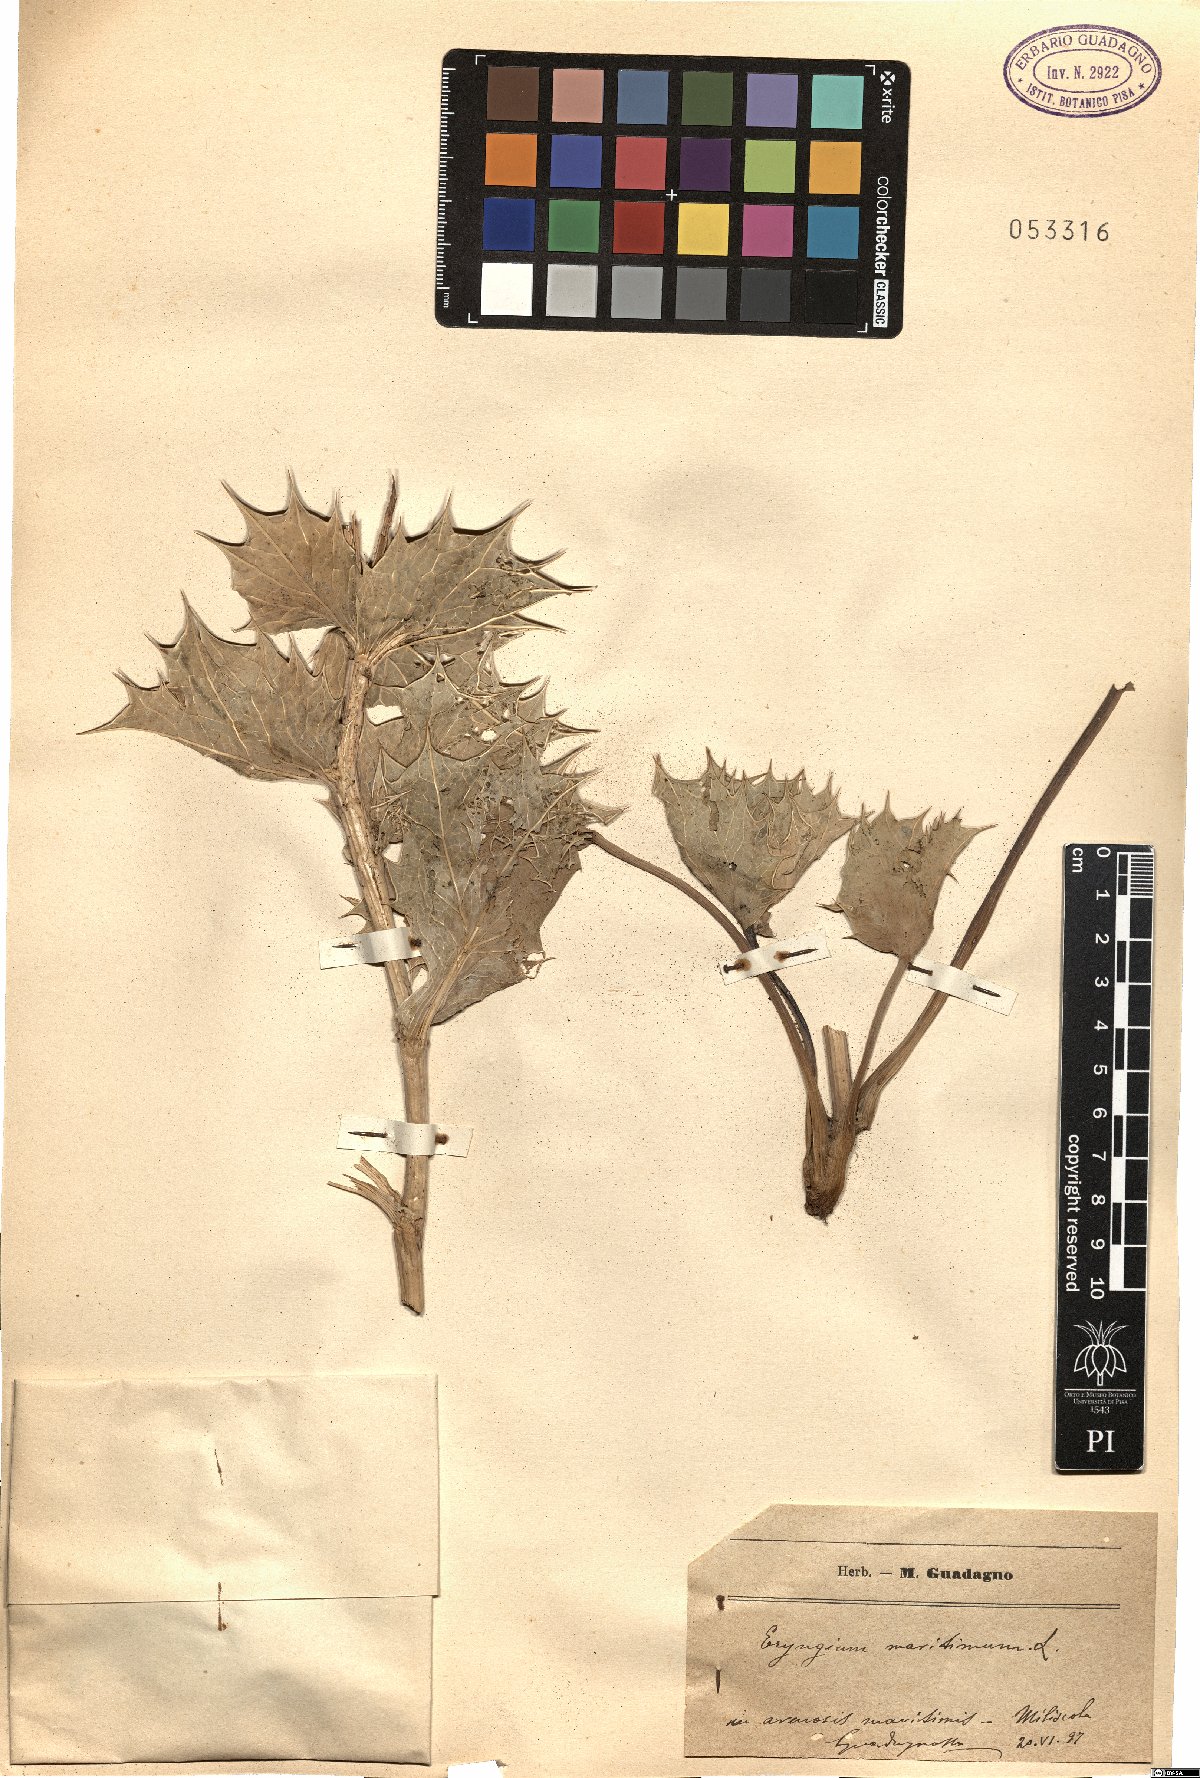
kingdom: Plantae
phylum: Tracheophyta
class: Magnoliopsida
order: Apiales
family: Apiaceae
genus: Eryngium
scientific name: Eryngium maritimum
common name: Sea-holly
